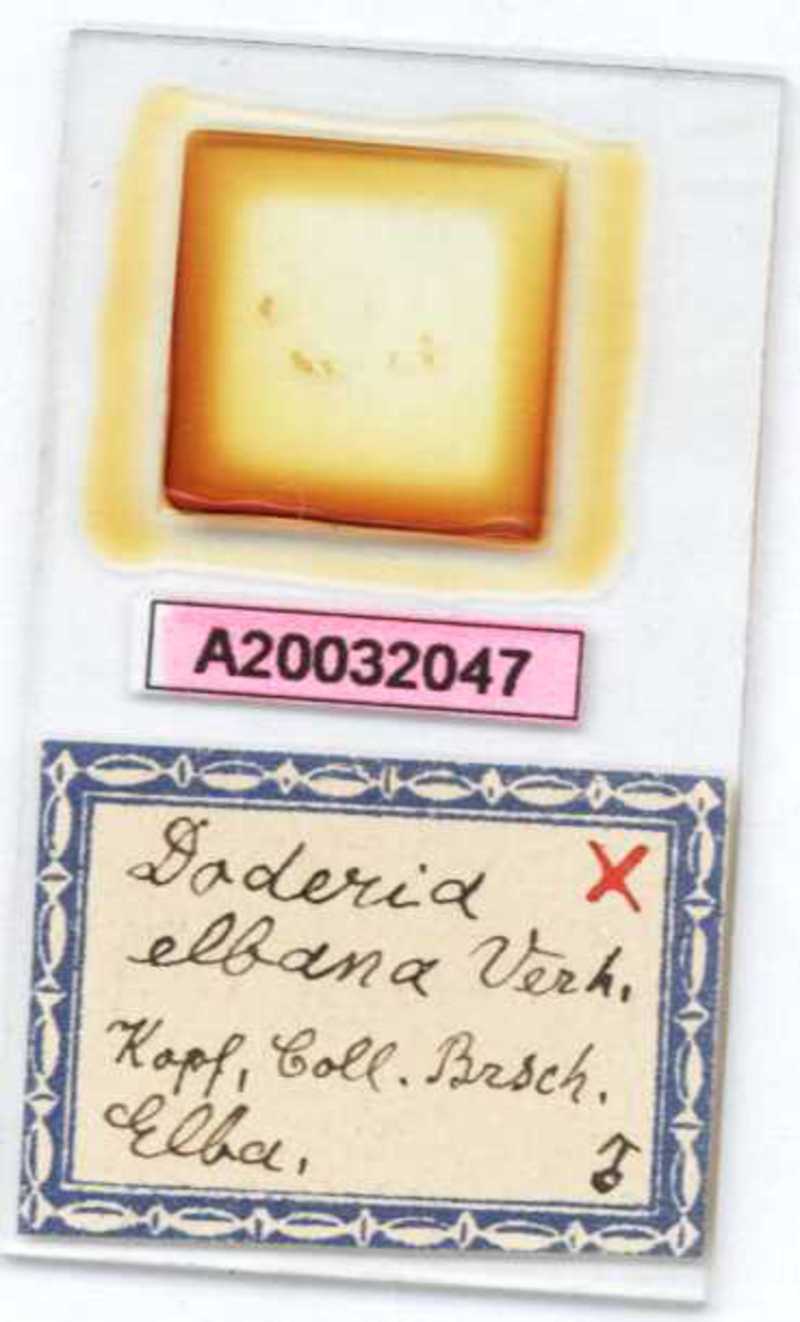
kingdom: Animalia
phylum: Arthropoda
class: Diplopoda
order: Glomerida
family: Glomeridae
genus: Doderia
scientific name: Doderia elbana
